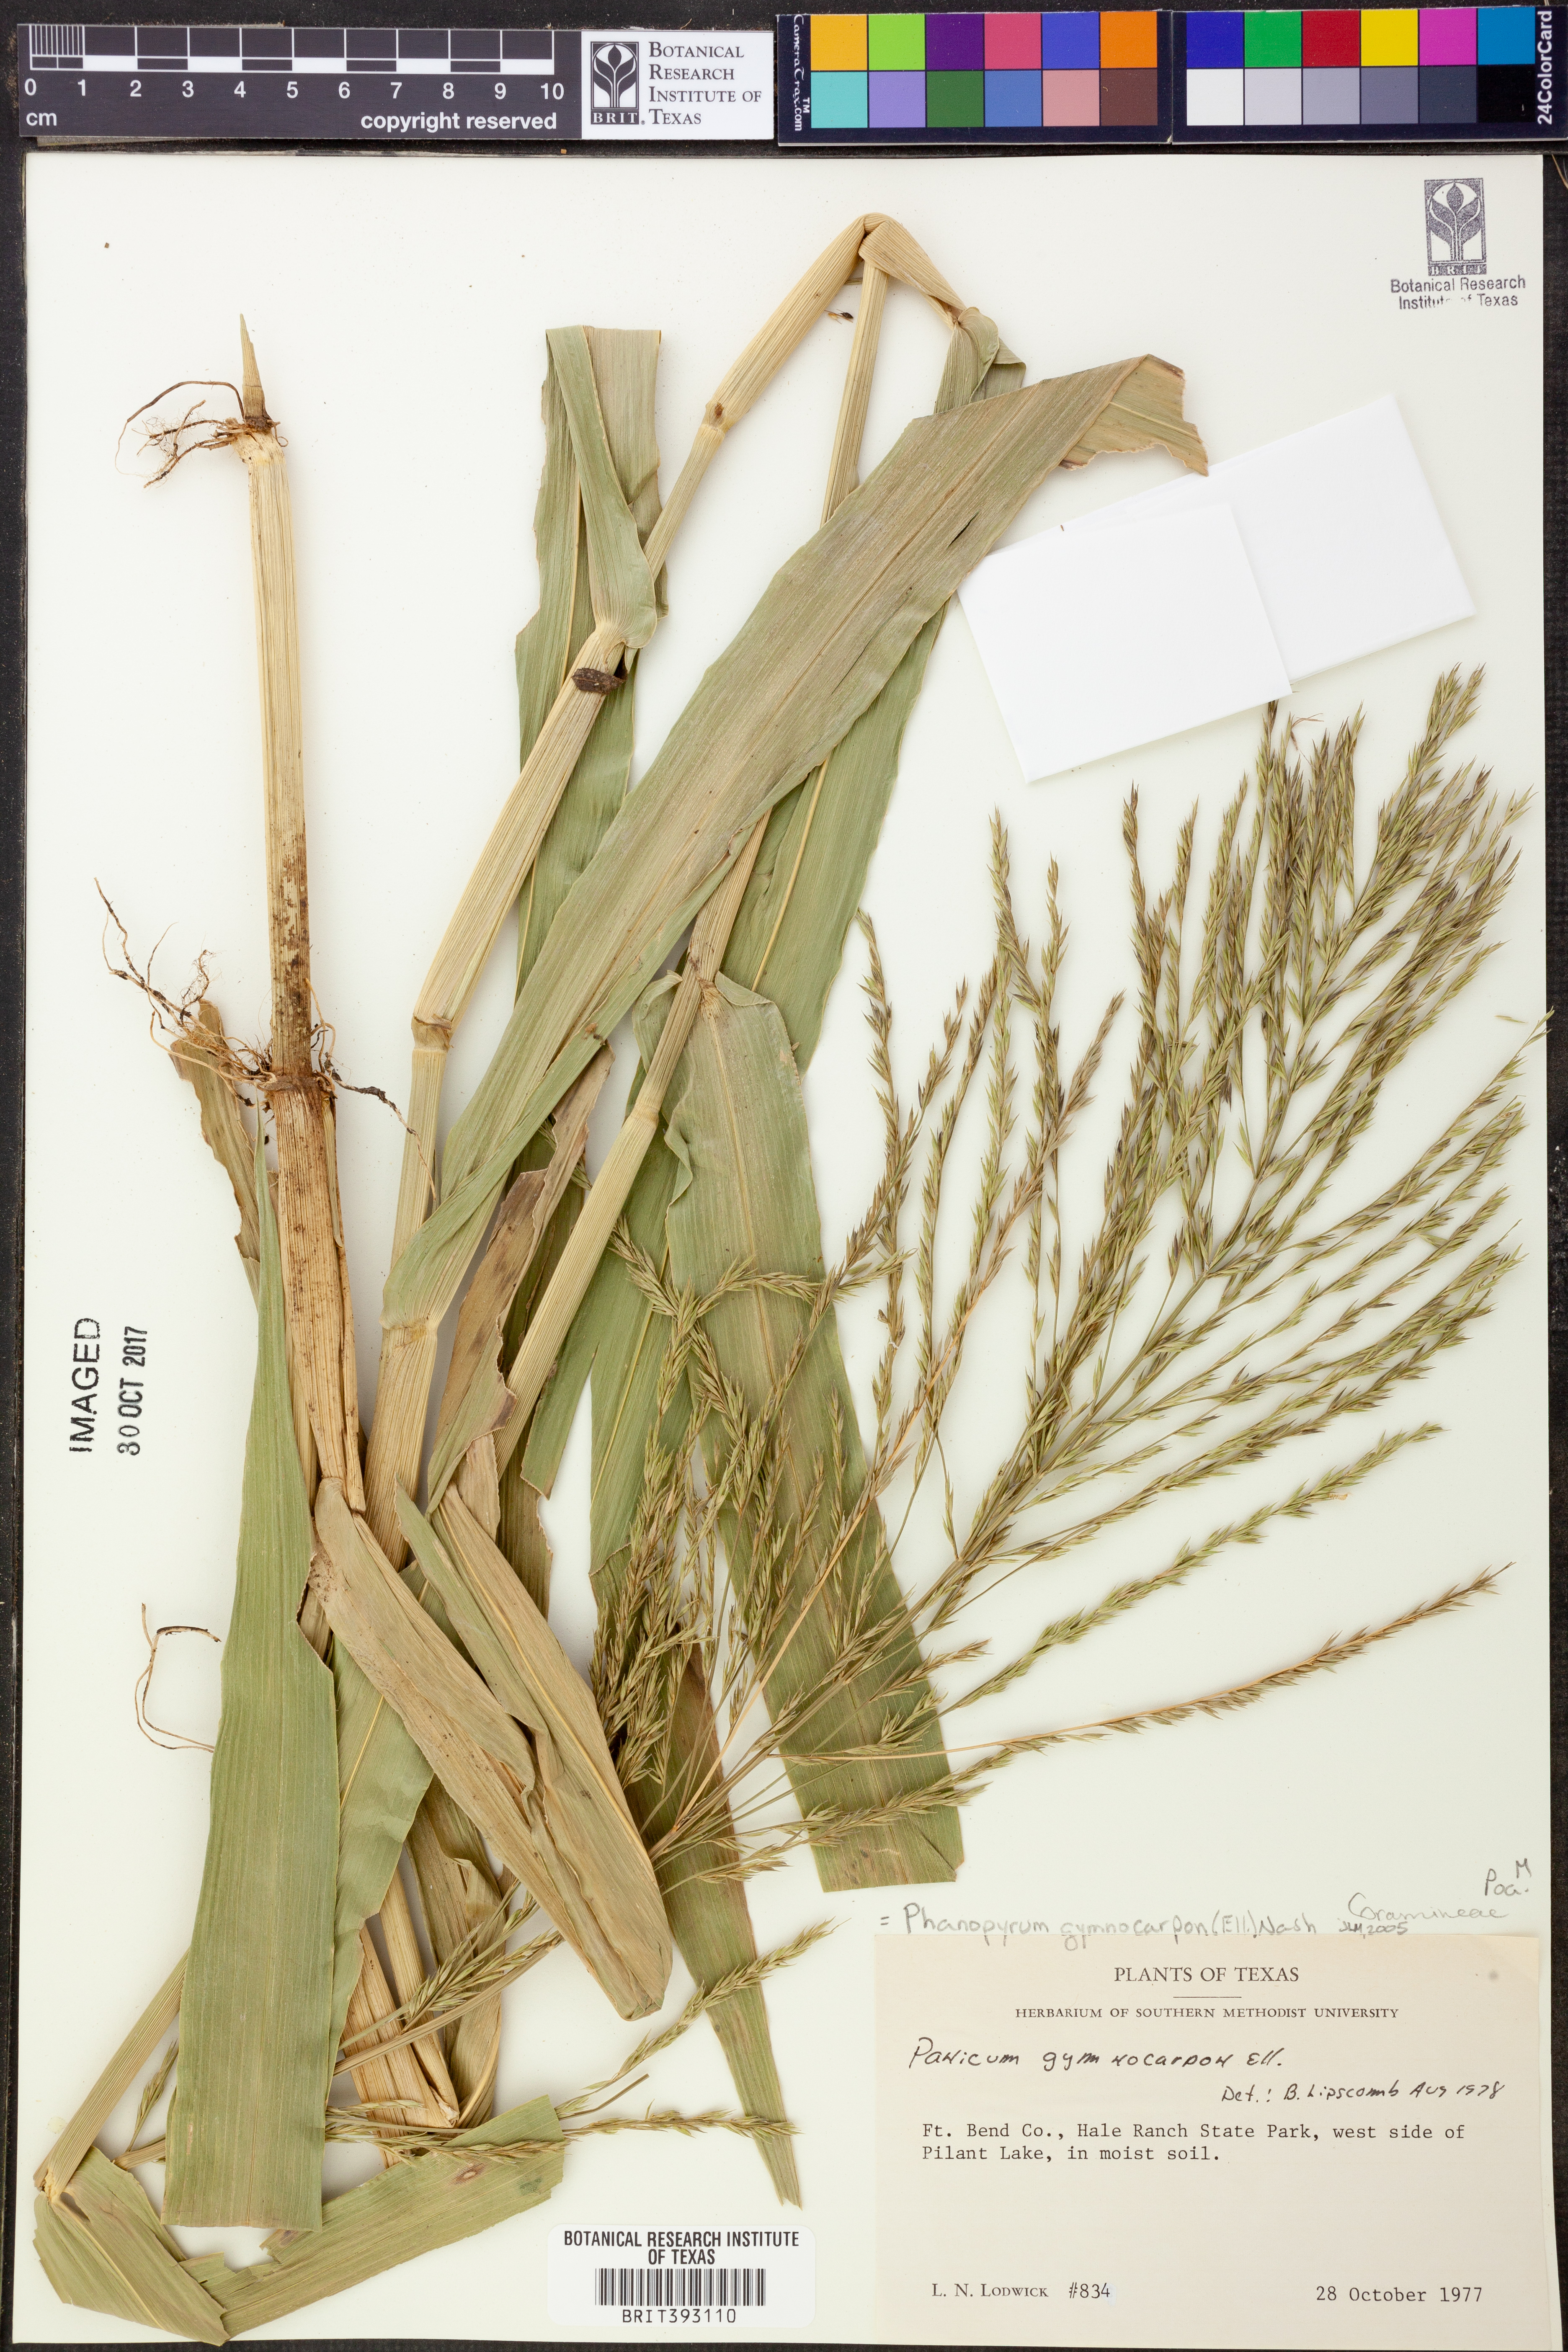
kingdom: Plantae
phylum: Tracheophyta
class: Liliopsida
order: Poales
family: Poaceae
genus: Panicum
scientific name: Panicum gymnocarpon
